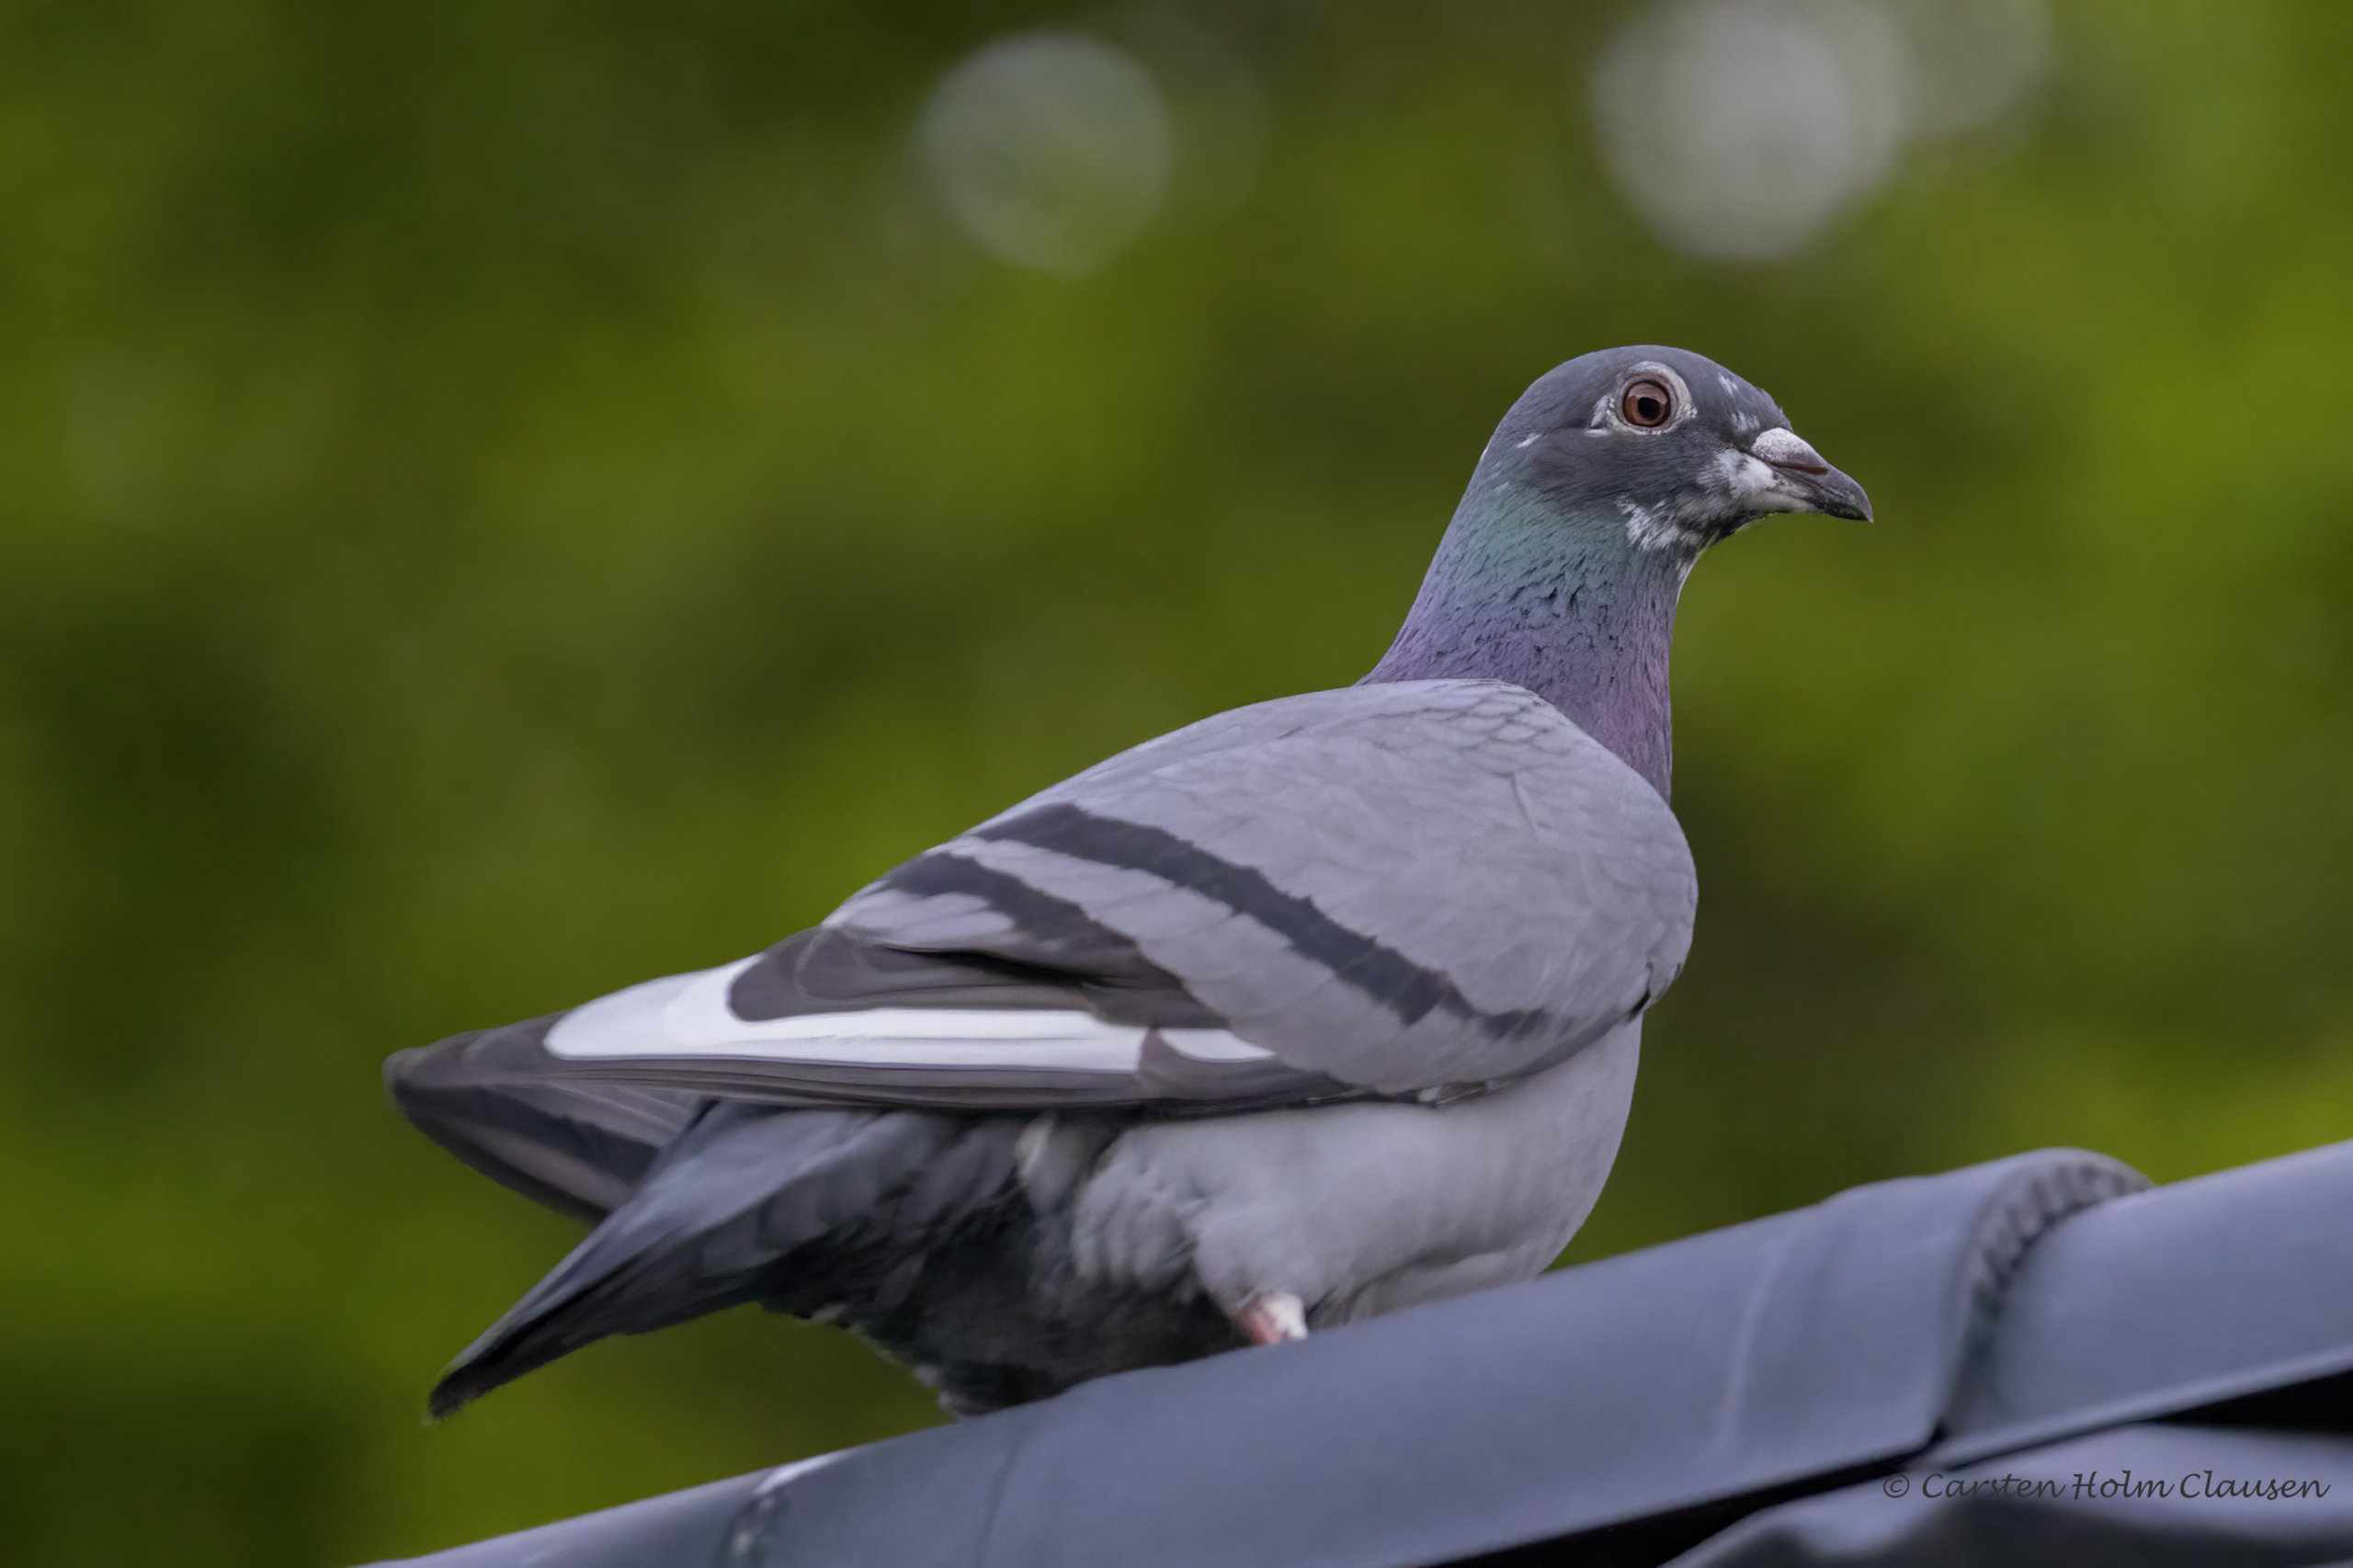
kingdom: Animalia
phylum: Chordata
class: Aves
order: Columbiformes
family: Columbidae
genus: Columba
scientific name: Columba livia
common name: Klippedue
